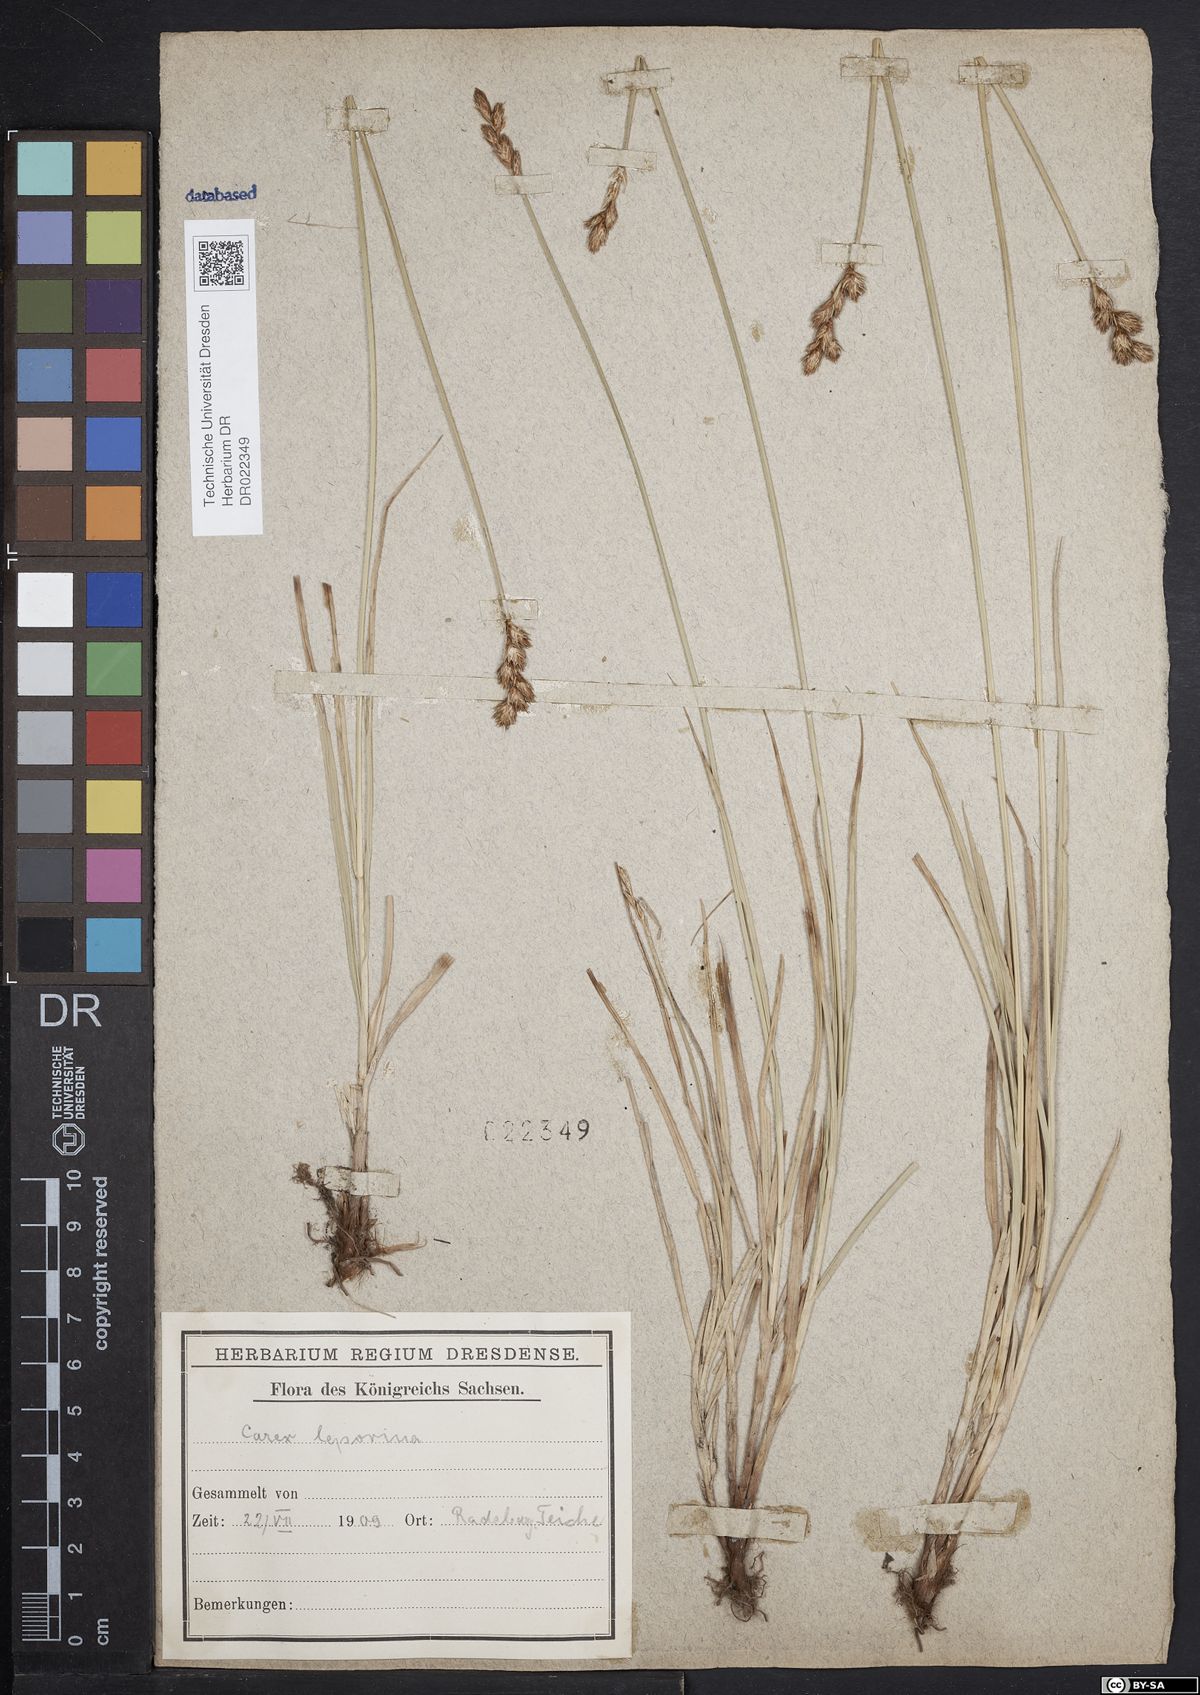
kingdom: Plantae
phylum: Tracheophyta
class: Liliopsida
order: Poales
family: Cyperaceae
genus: Carex
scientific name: Carex leporina
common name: Oval sedge
